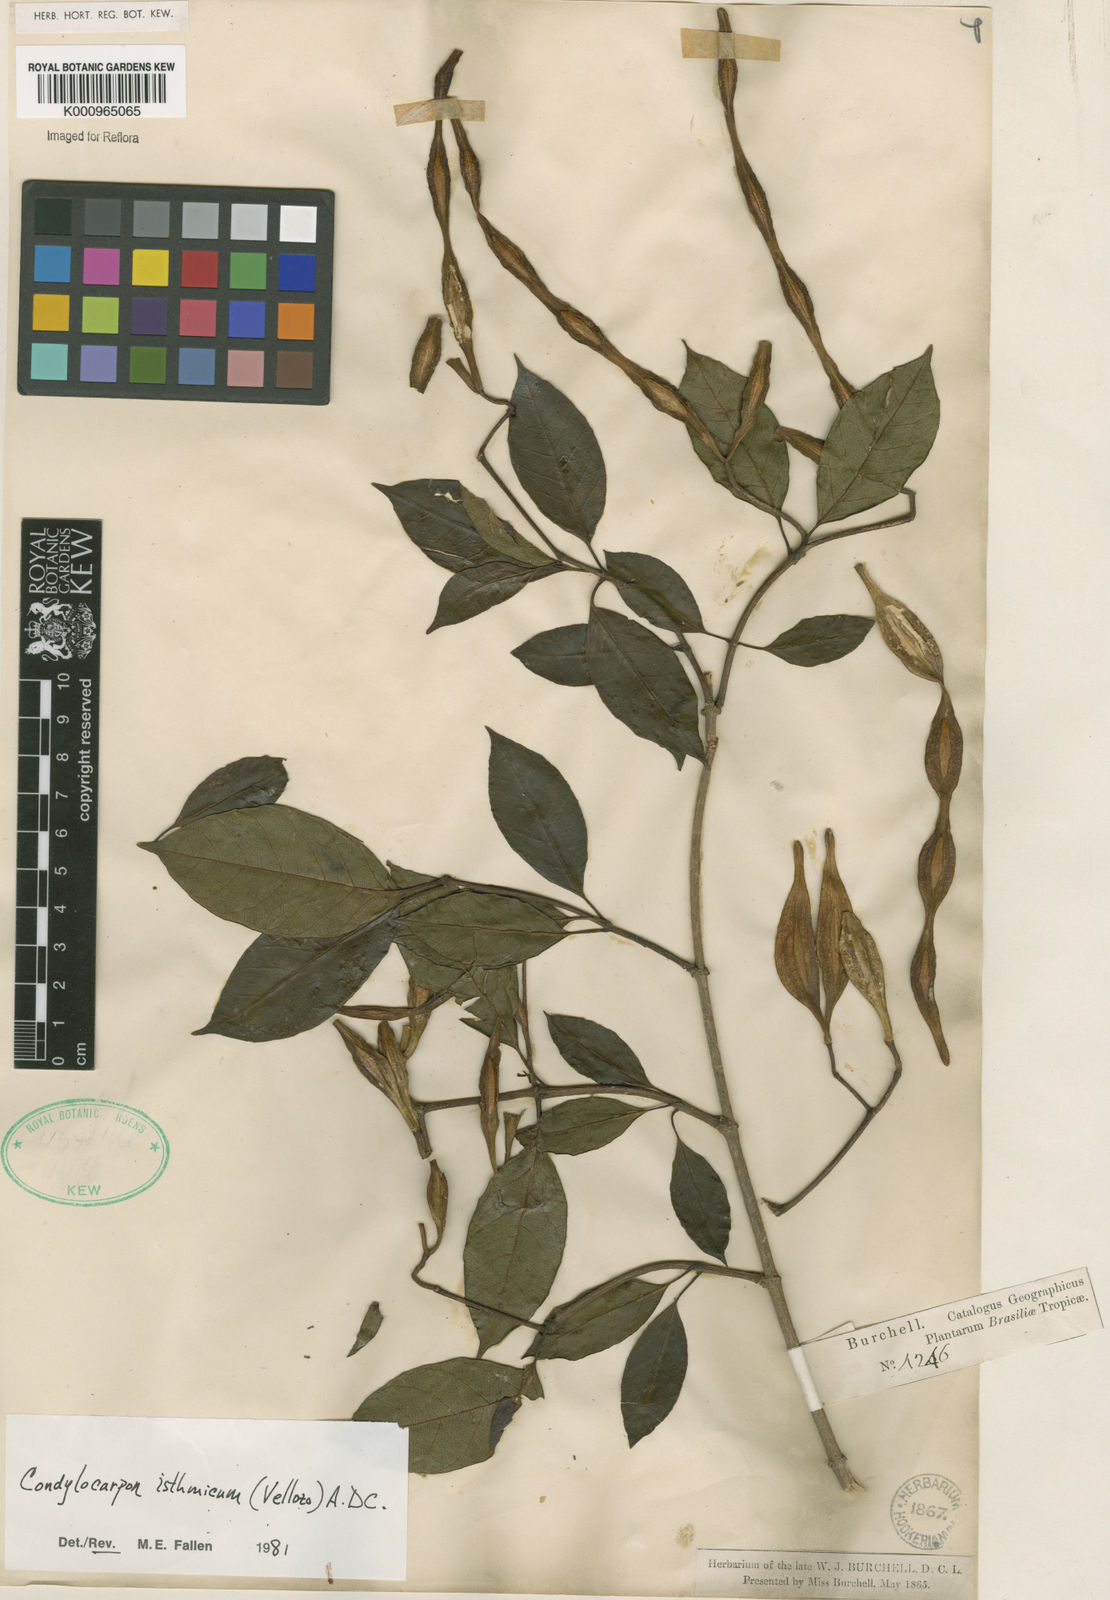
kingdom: Plantae
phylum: Tracheophyta
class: Magnoliopsida
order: Gentianales
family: Apocynaceae
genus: Condylocarpon
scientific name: Condylocarpon isthmicum
